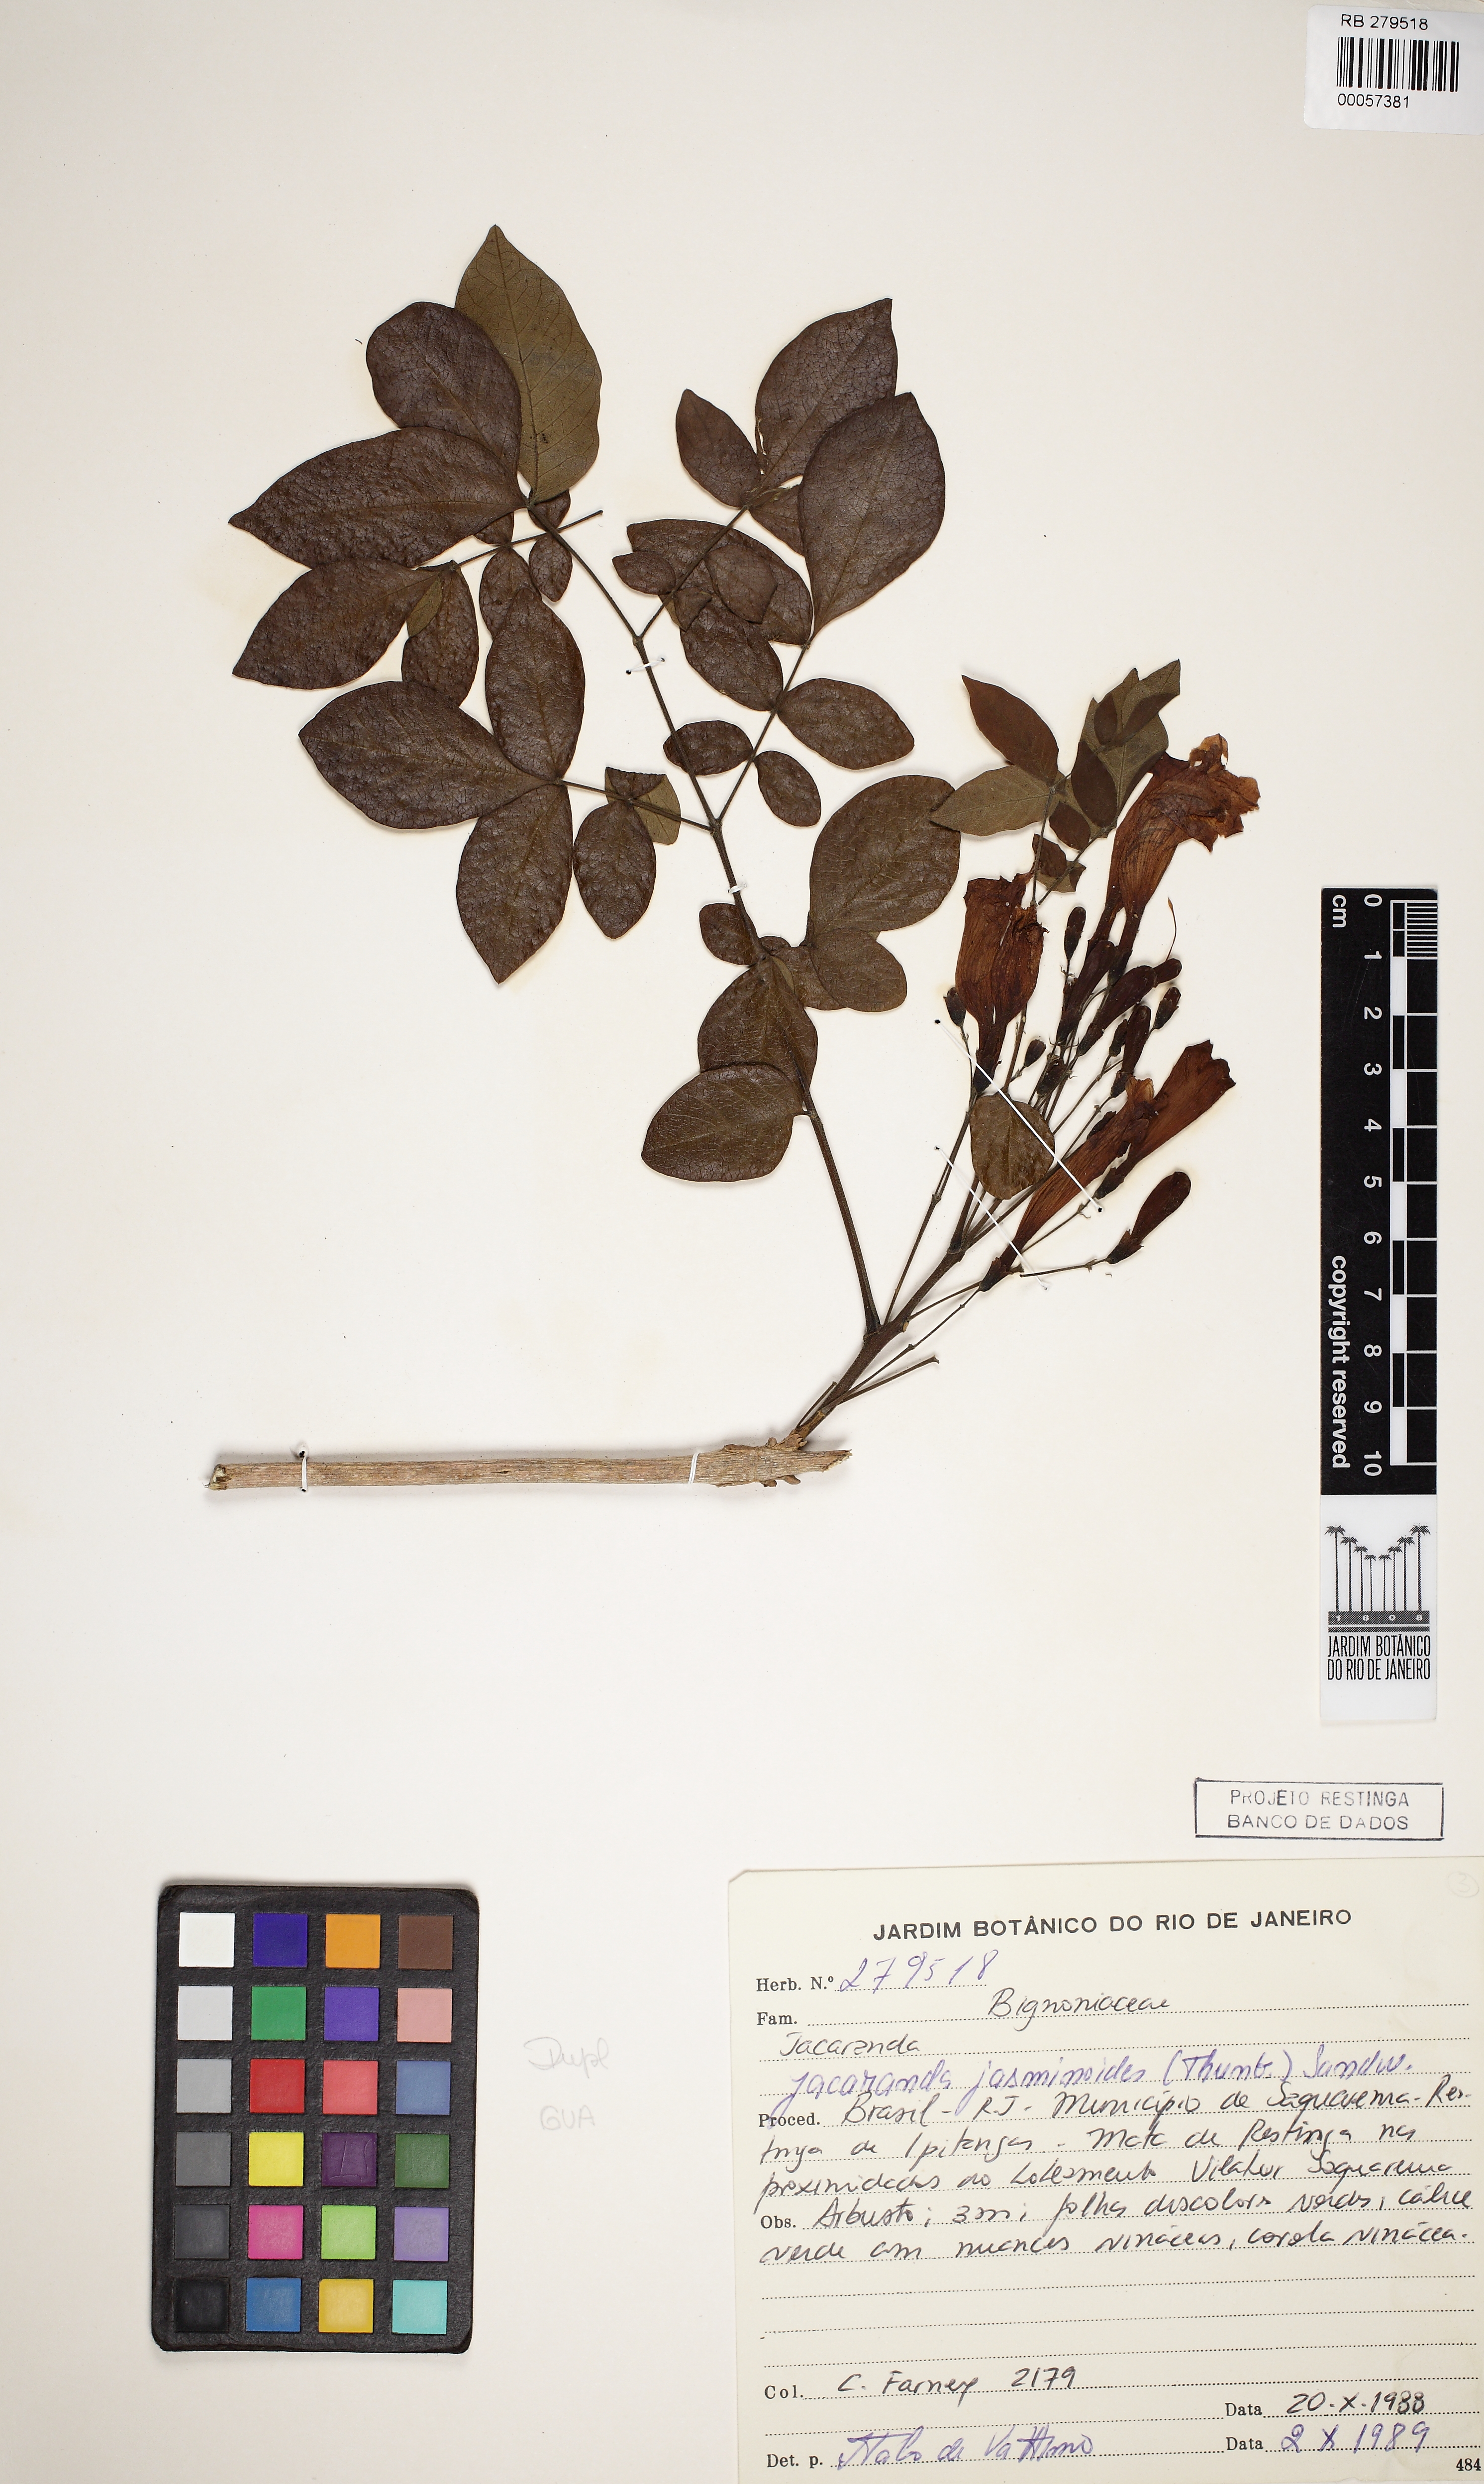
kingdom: Plantae
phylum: Tracheophyta
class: Magnoliopsida
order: Lamiales
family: Bignoniaceae
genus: Jacaranda
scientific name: Jacaranda jasminoides
